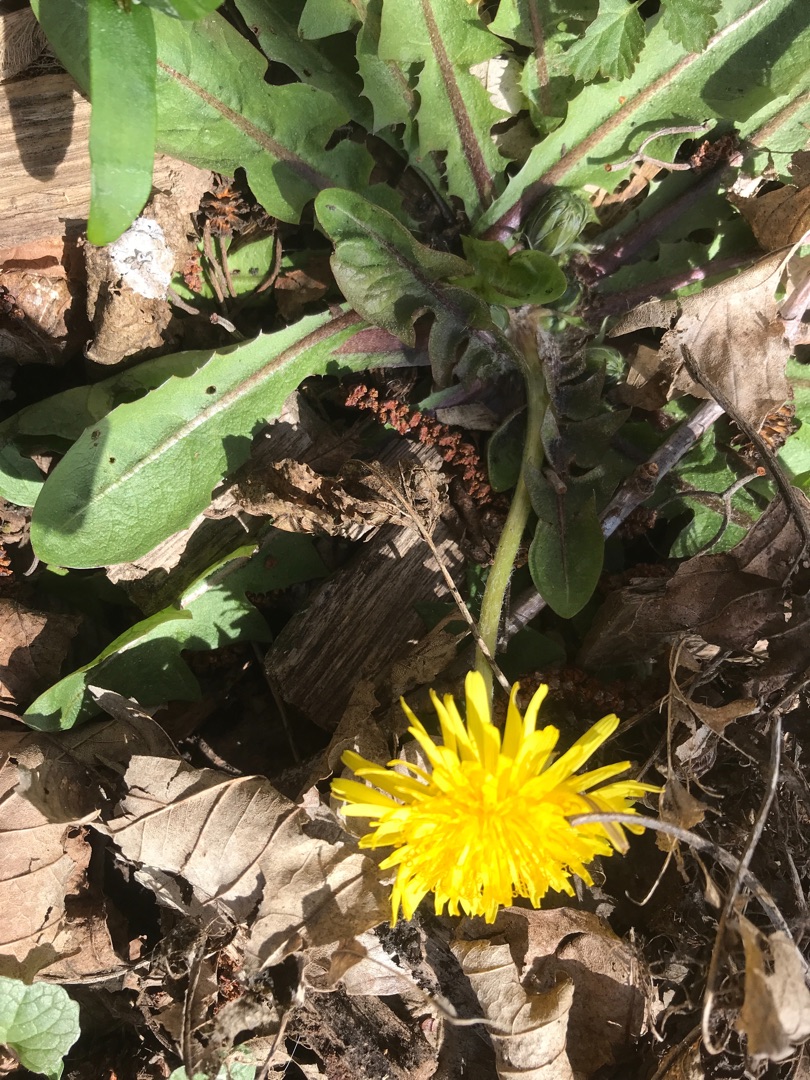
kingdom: Plantae
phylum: Tracheophyta
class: Magnoliopsida
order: Asterales
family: Asteraceae
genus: Taraxacum
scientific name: Taraxacum
